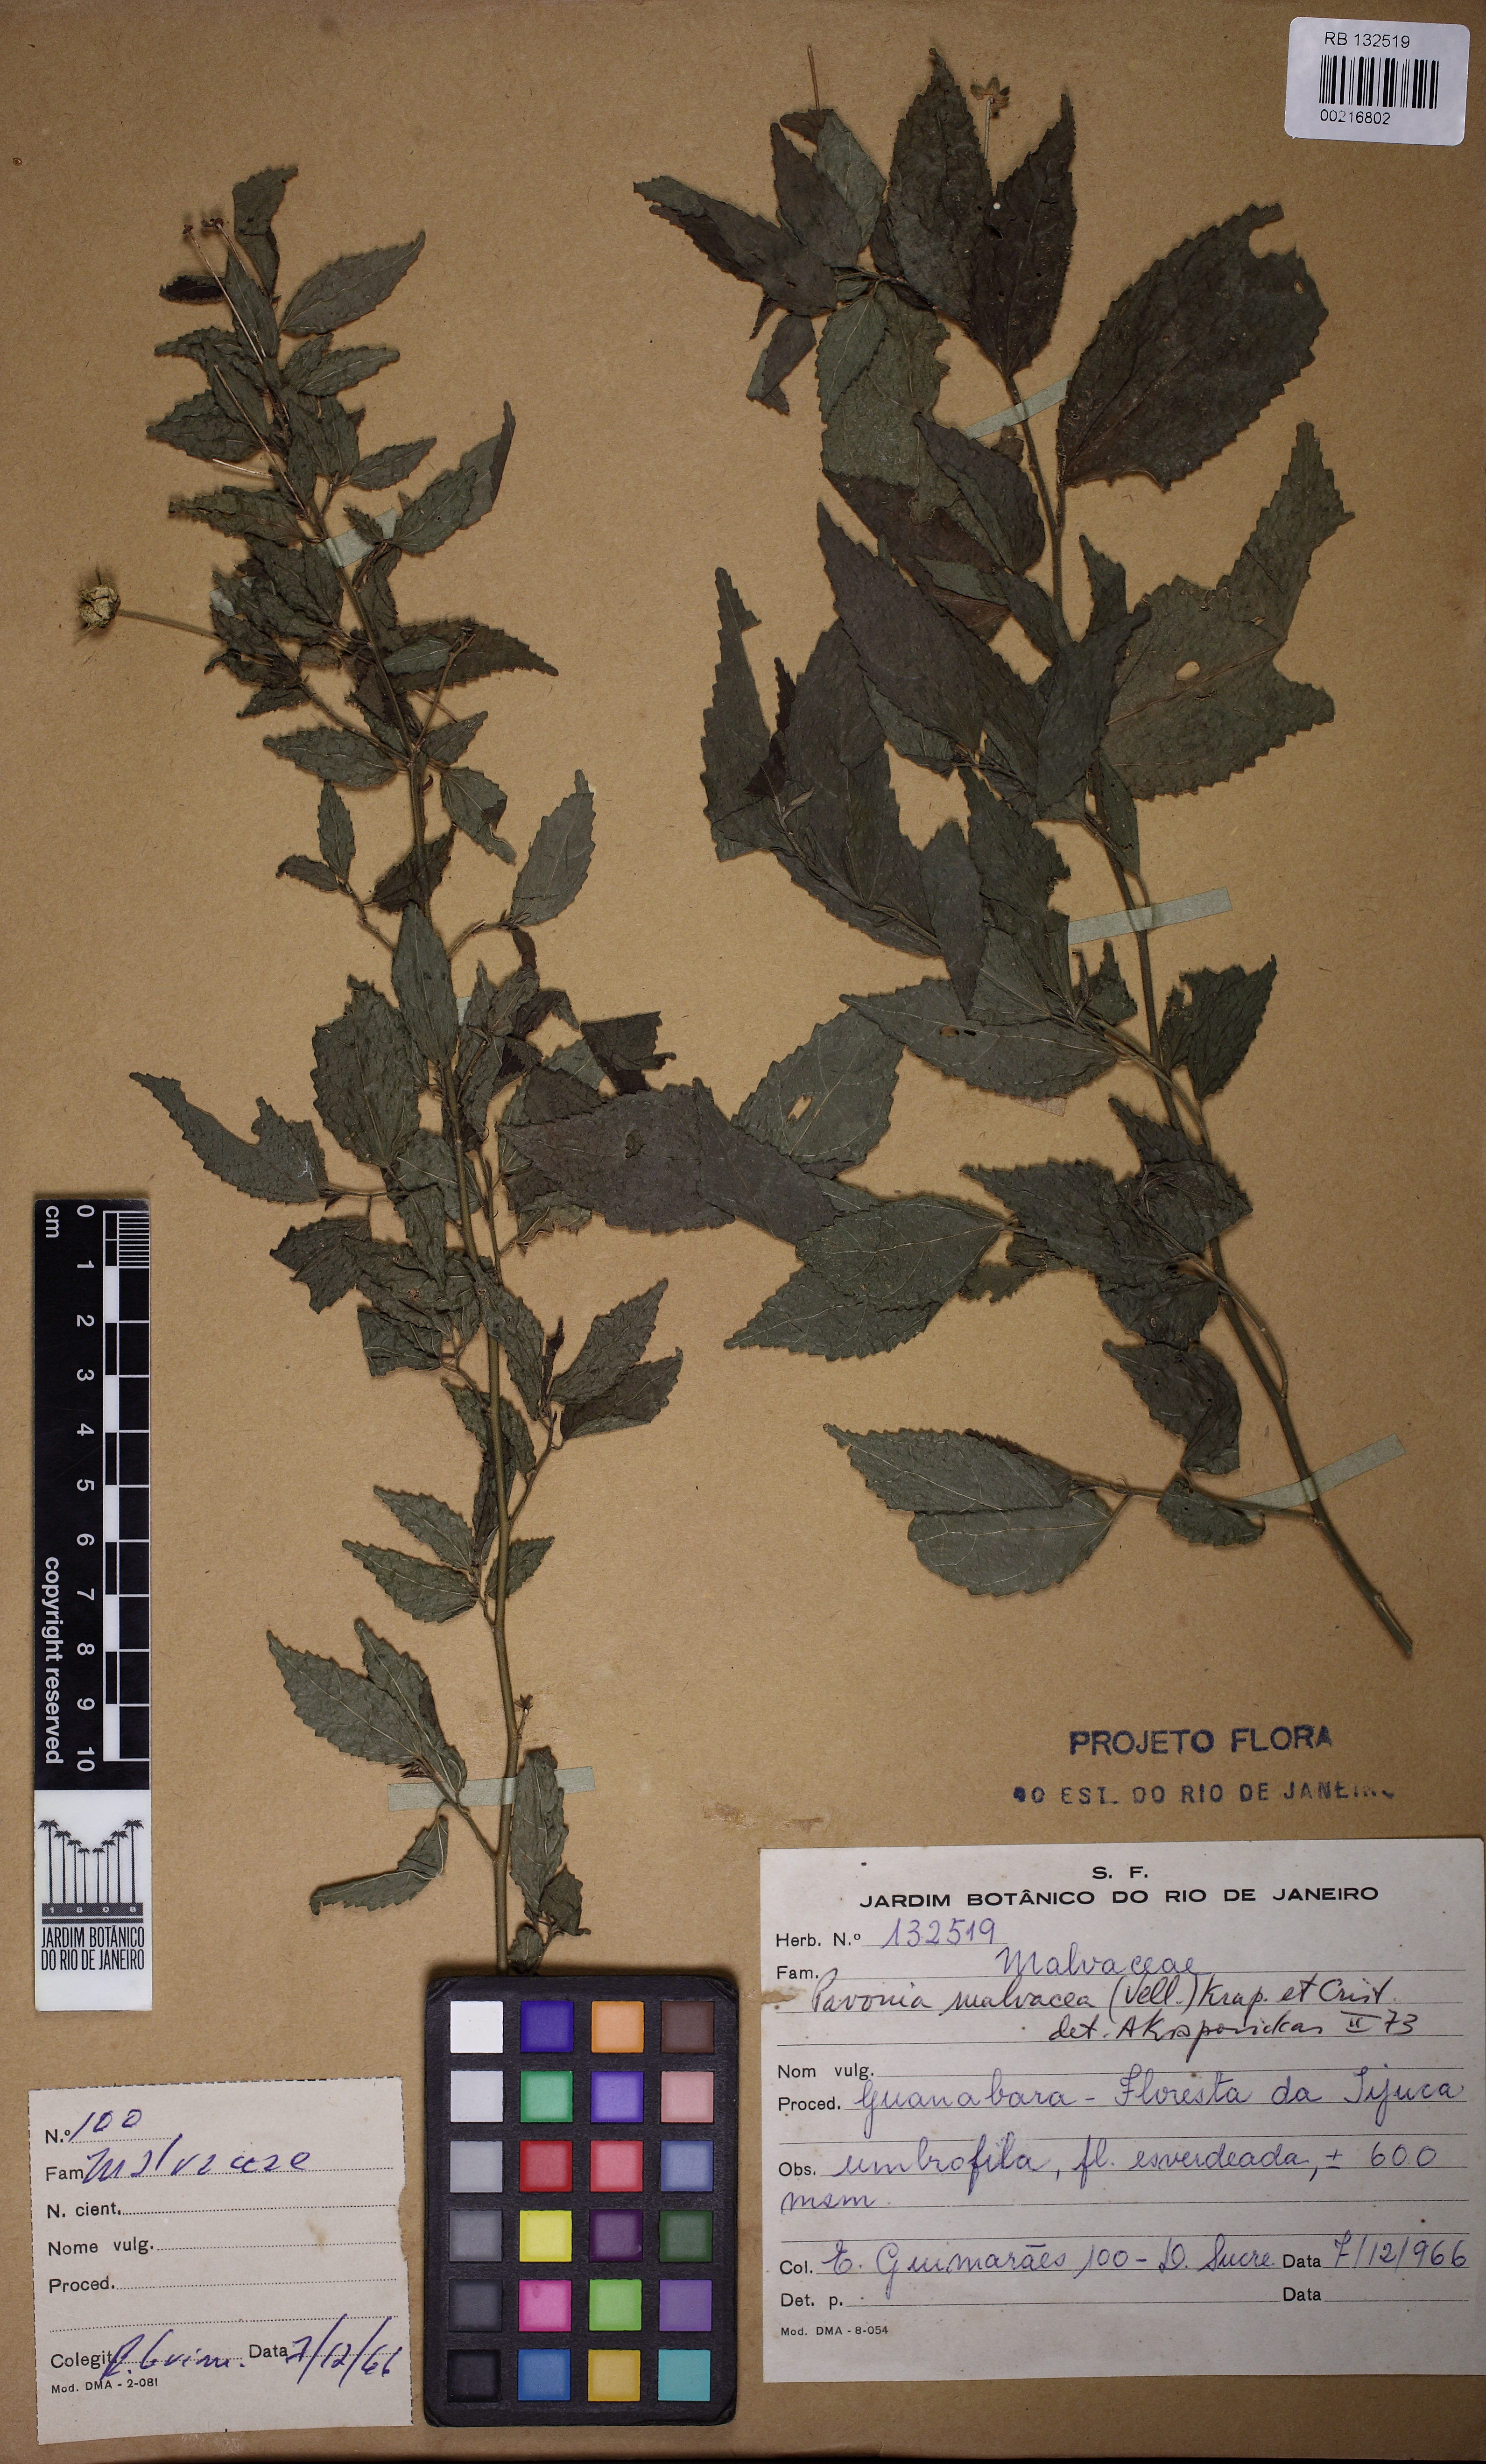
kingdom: Plantae
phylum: Tracheophyta
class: Magnoliopsida
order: Malvales
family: Malvaceae
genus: Pavonia
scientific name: Pavonia sepium
